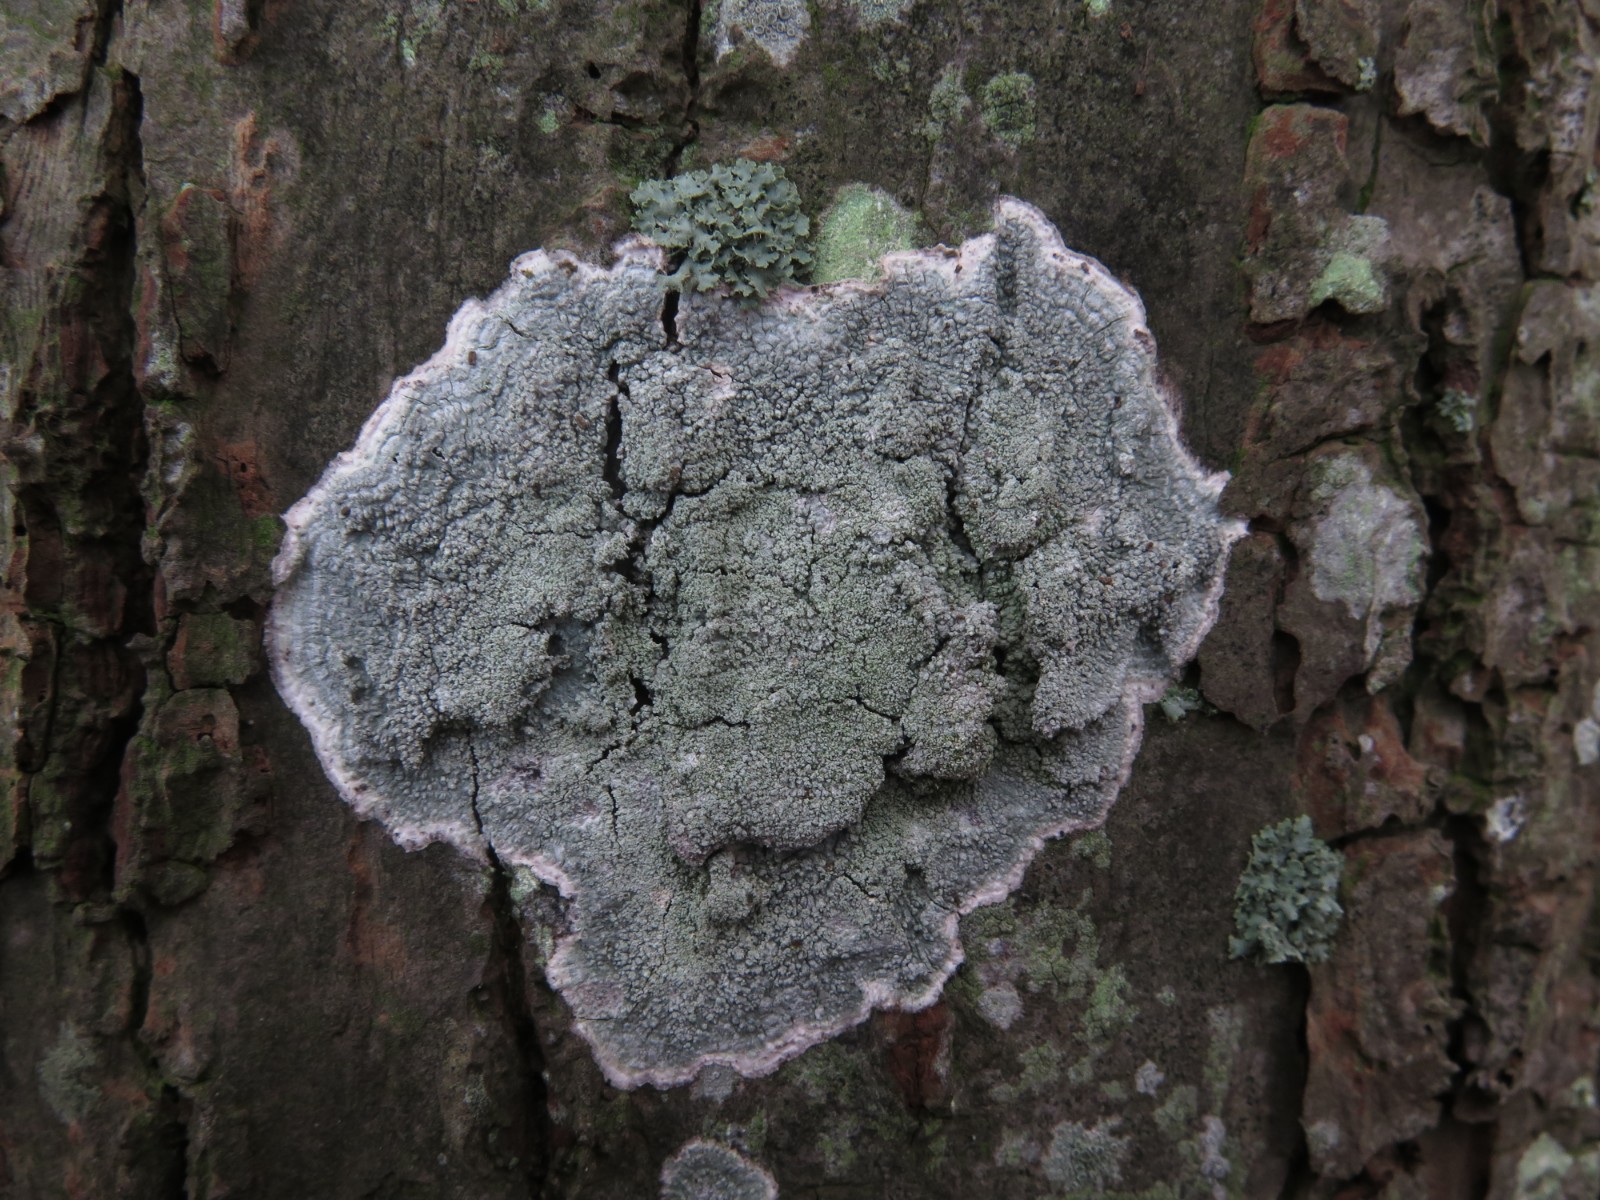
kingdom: Fungi
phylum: Ascomycota
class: Lecanoromycetes
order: Lecanorales
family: Haematommataceae
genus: Haematomma
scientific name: Haematomma ochroleucum
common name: gul trådkantlav
